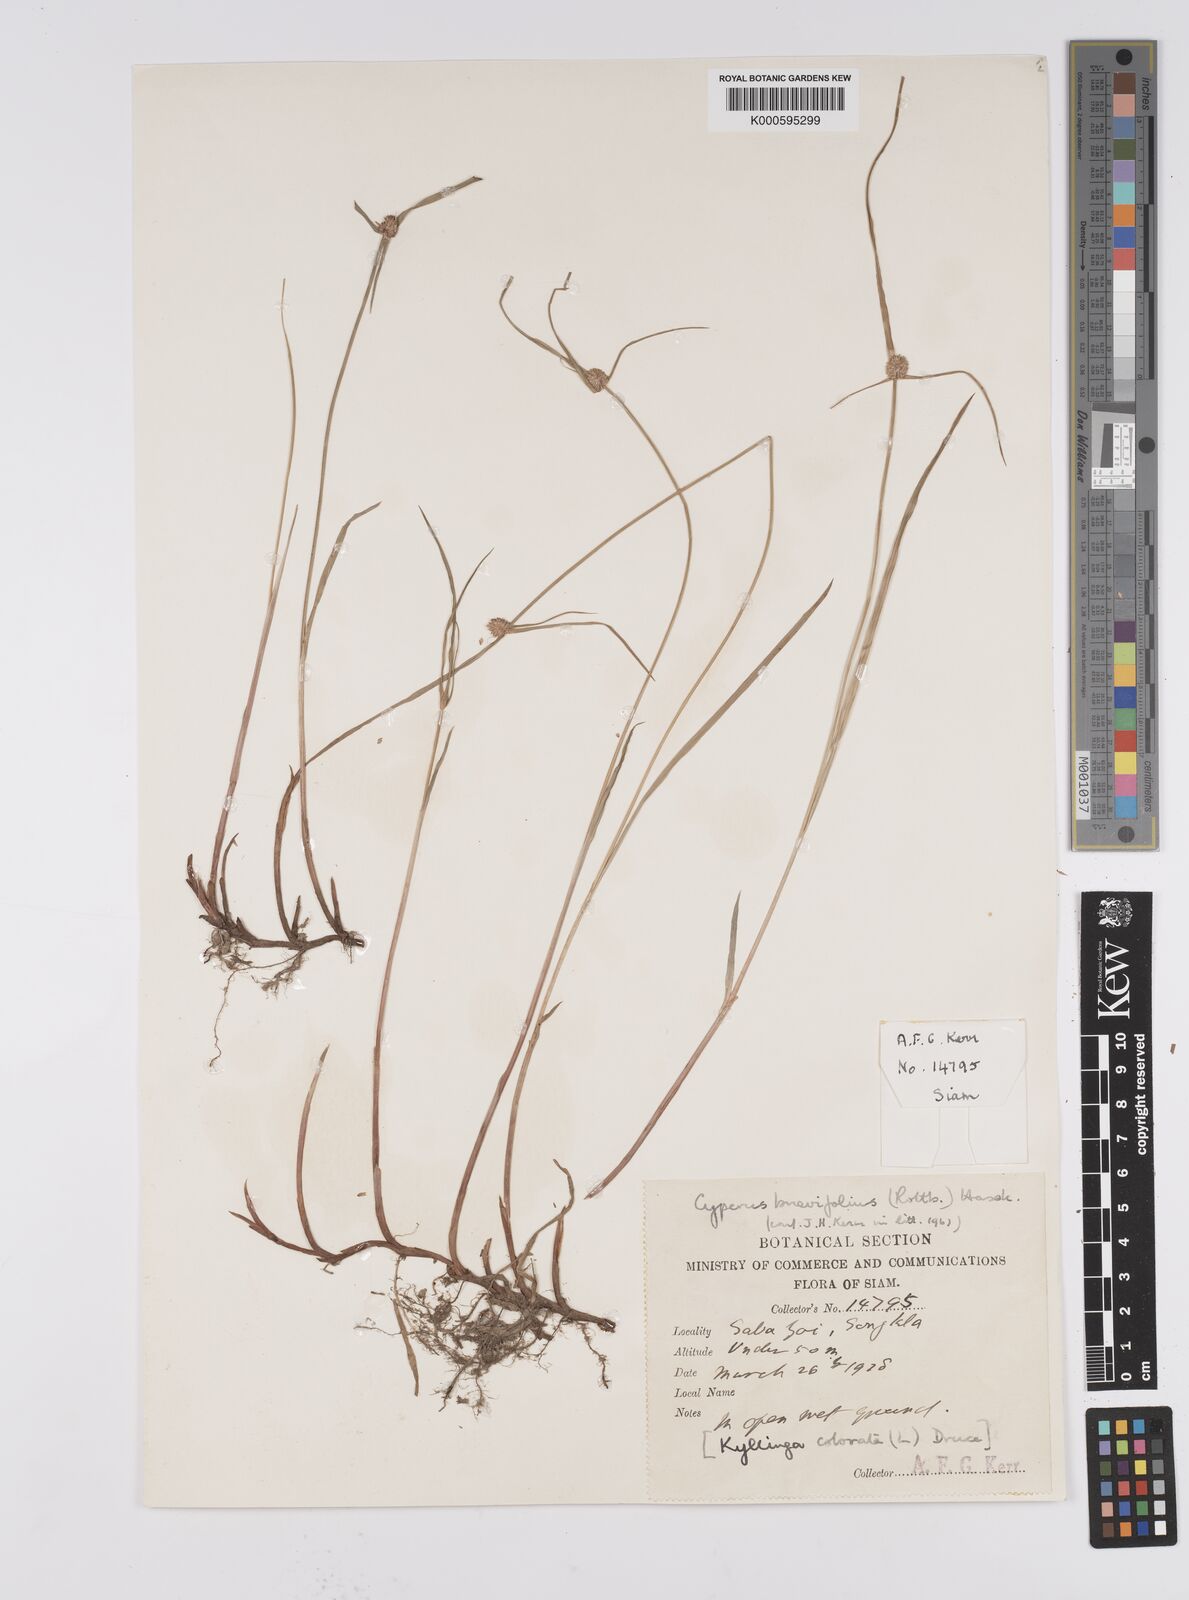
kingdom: Plantae
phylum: Tracheophyta
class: Liliopsida
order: Poales
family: Cyperaceae
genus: Cyperus
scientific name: Cyperus brevifolius
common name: Globe kyllinga
